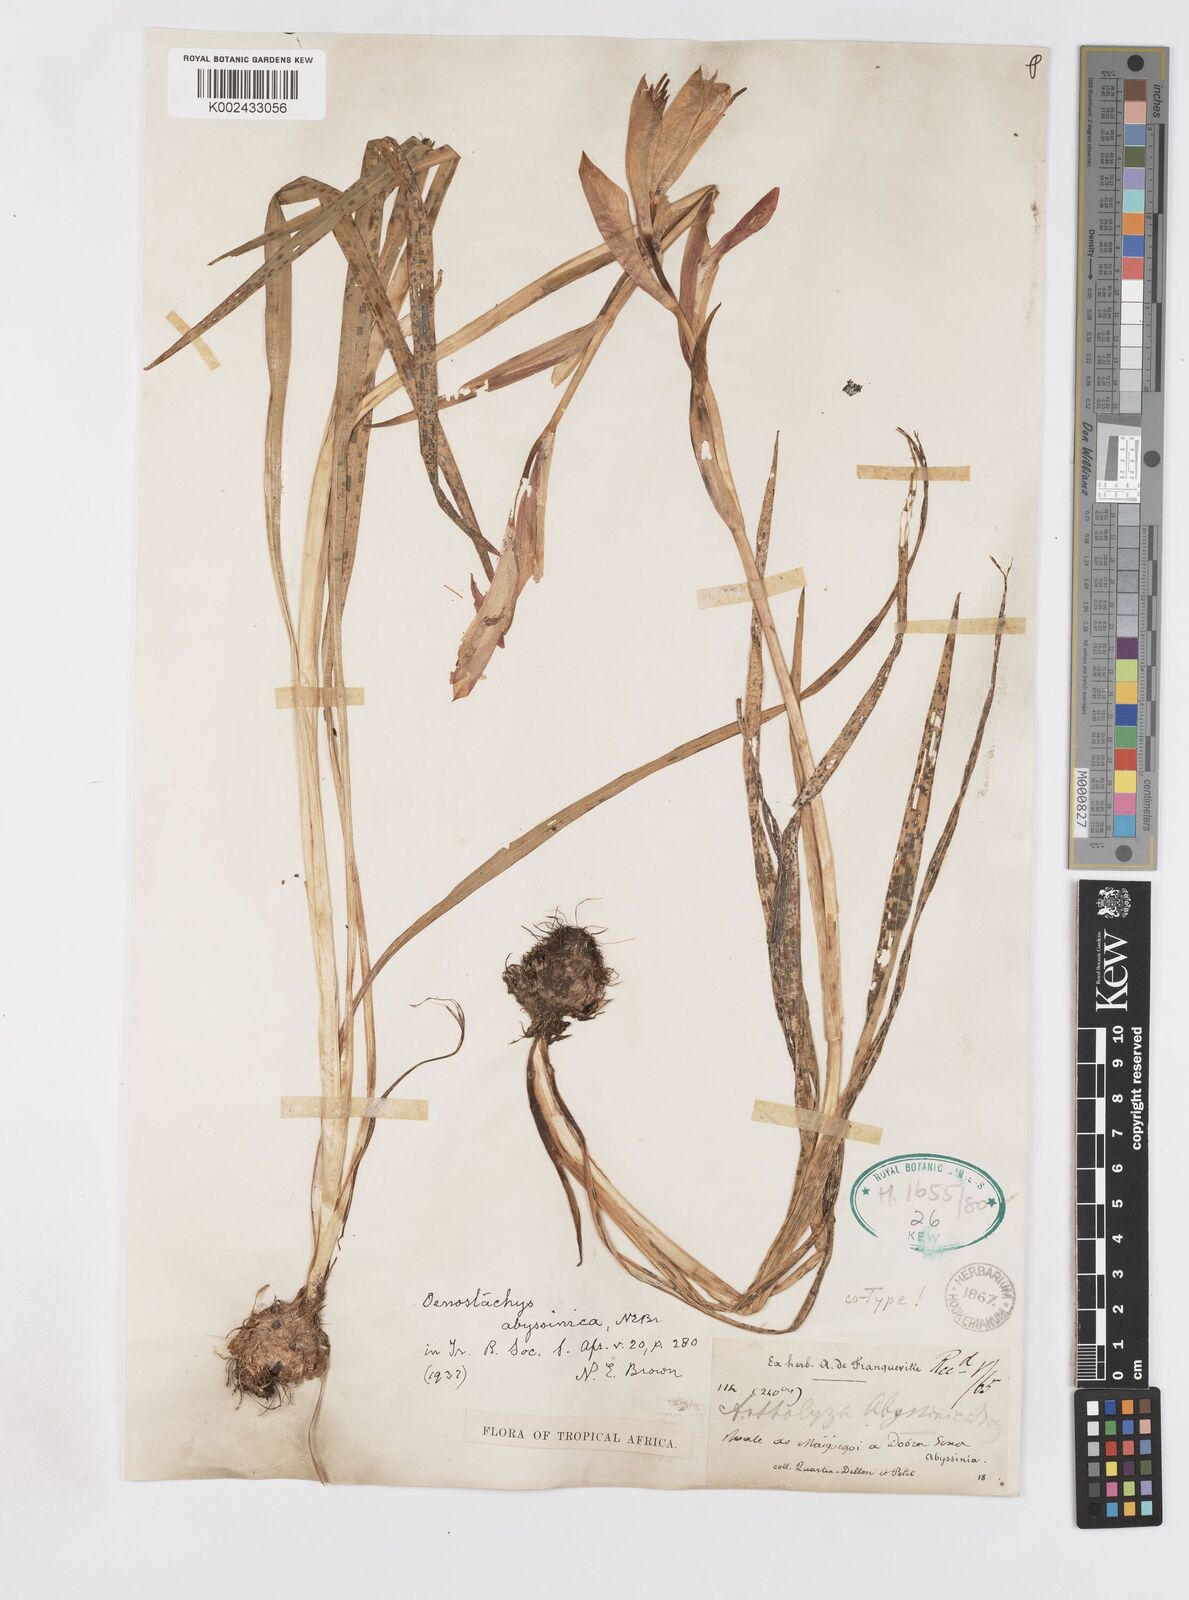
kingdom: Plantae
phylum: Tracheophyta
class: Liliopsida
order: Asparagales
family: Iridaceae
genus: Gladiolus
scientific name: Gladiolus abyssinicus
